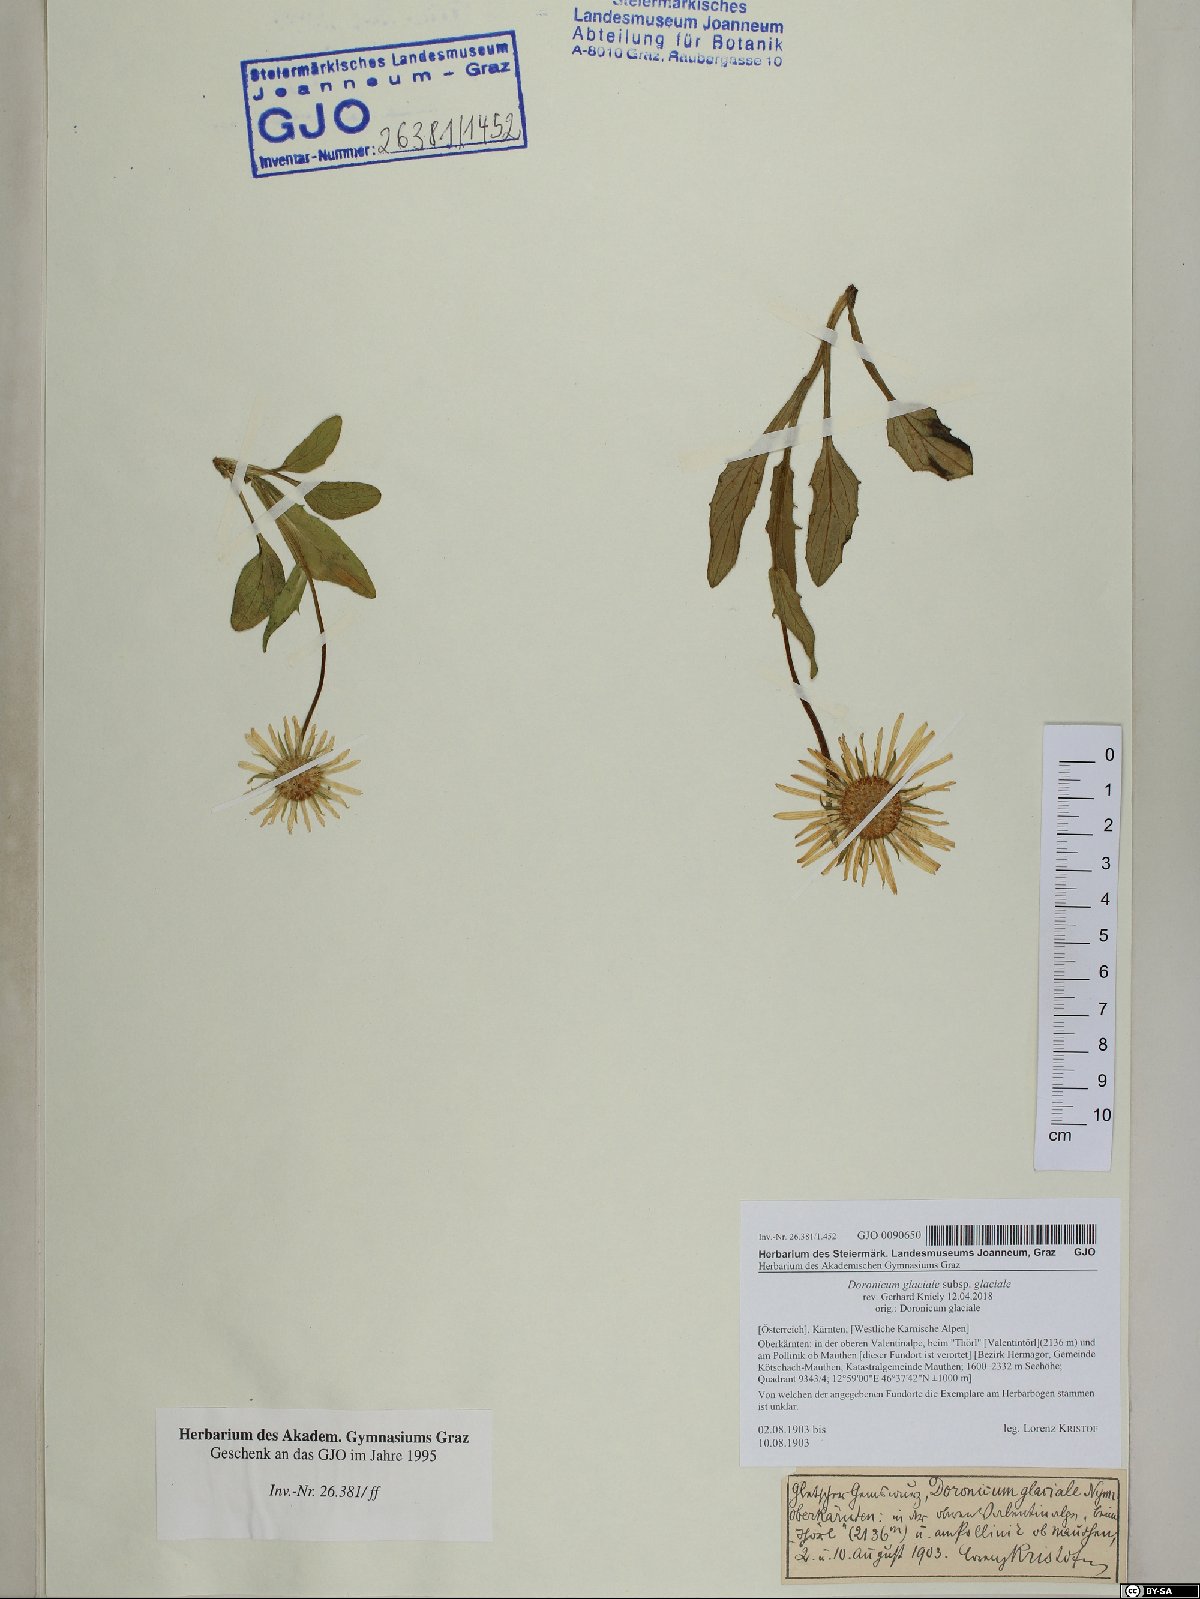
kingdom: Plantae
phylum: Tracheophyta
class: Magnoliopsida
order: Asterales
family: Asteraceae
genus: Doronicum
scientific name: Doronicum glaciale
